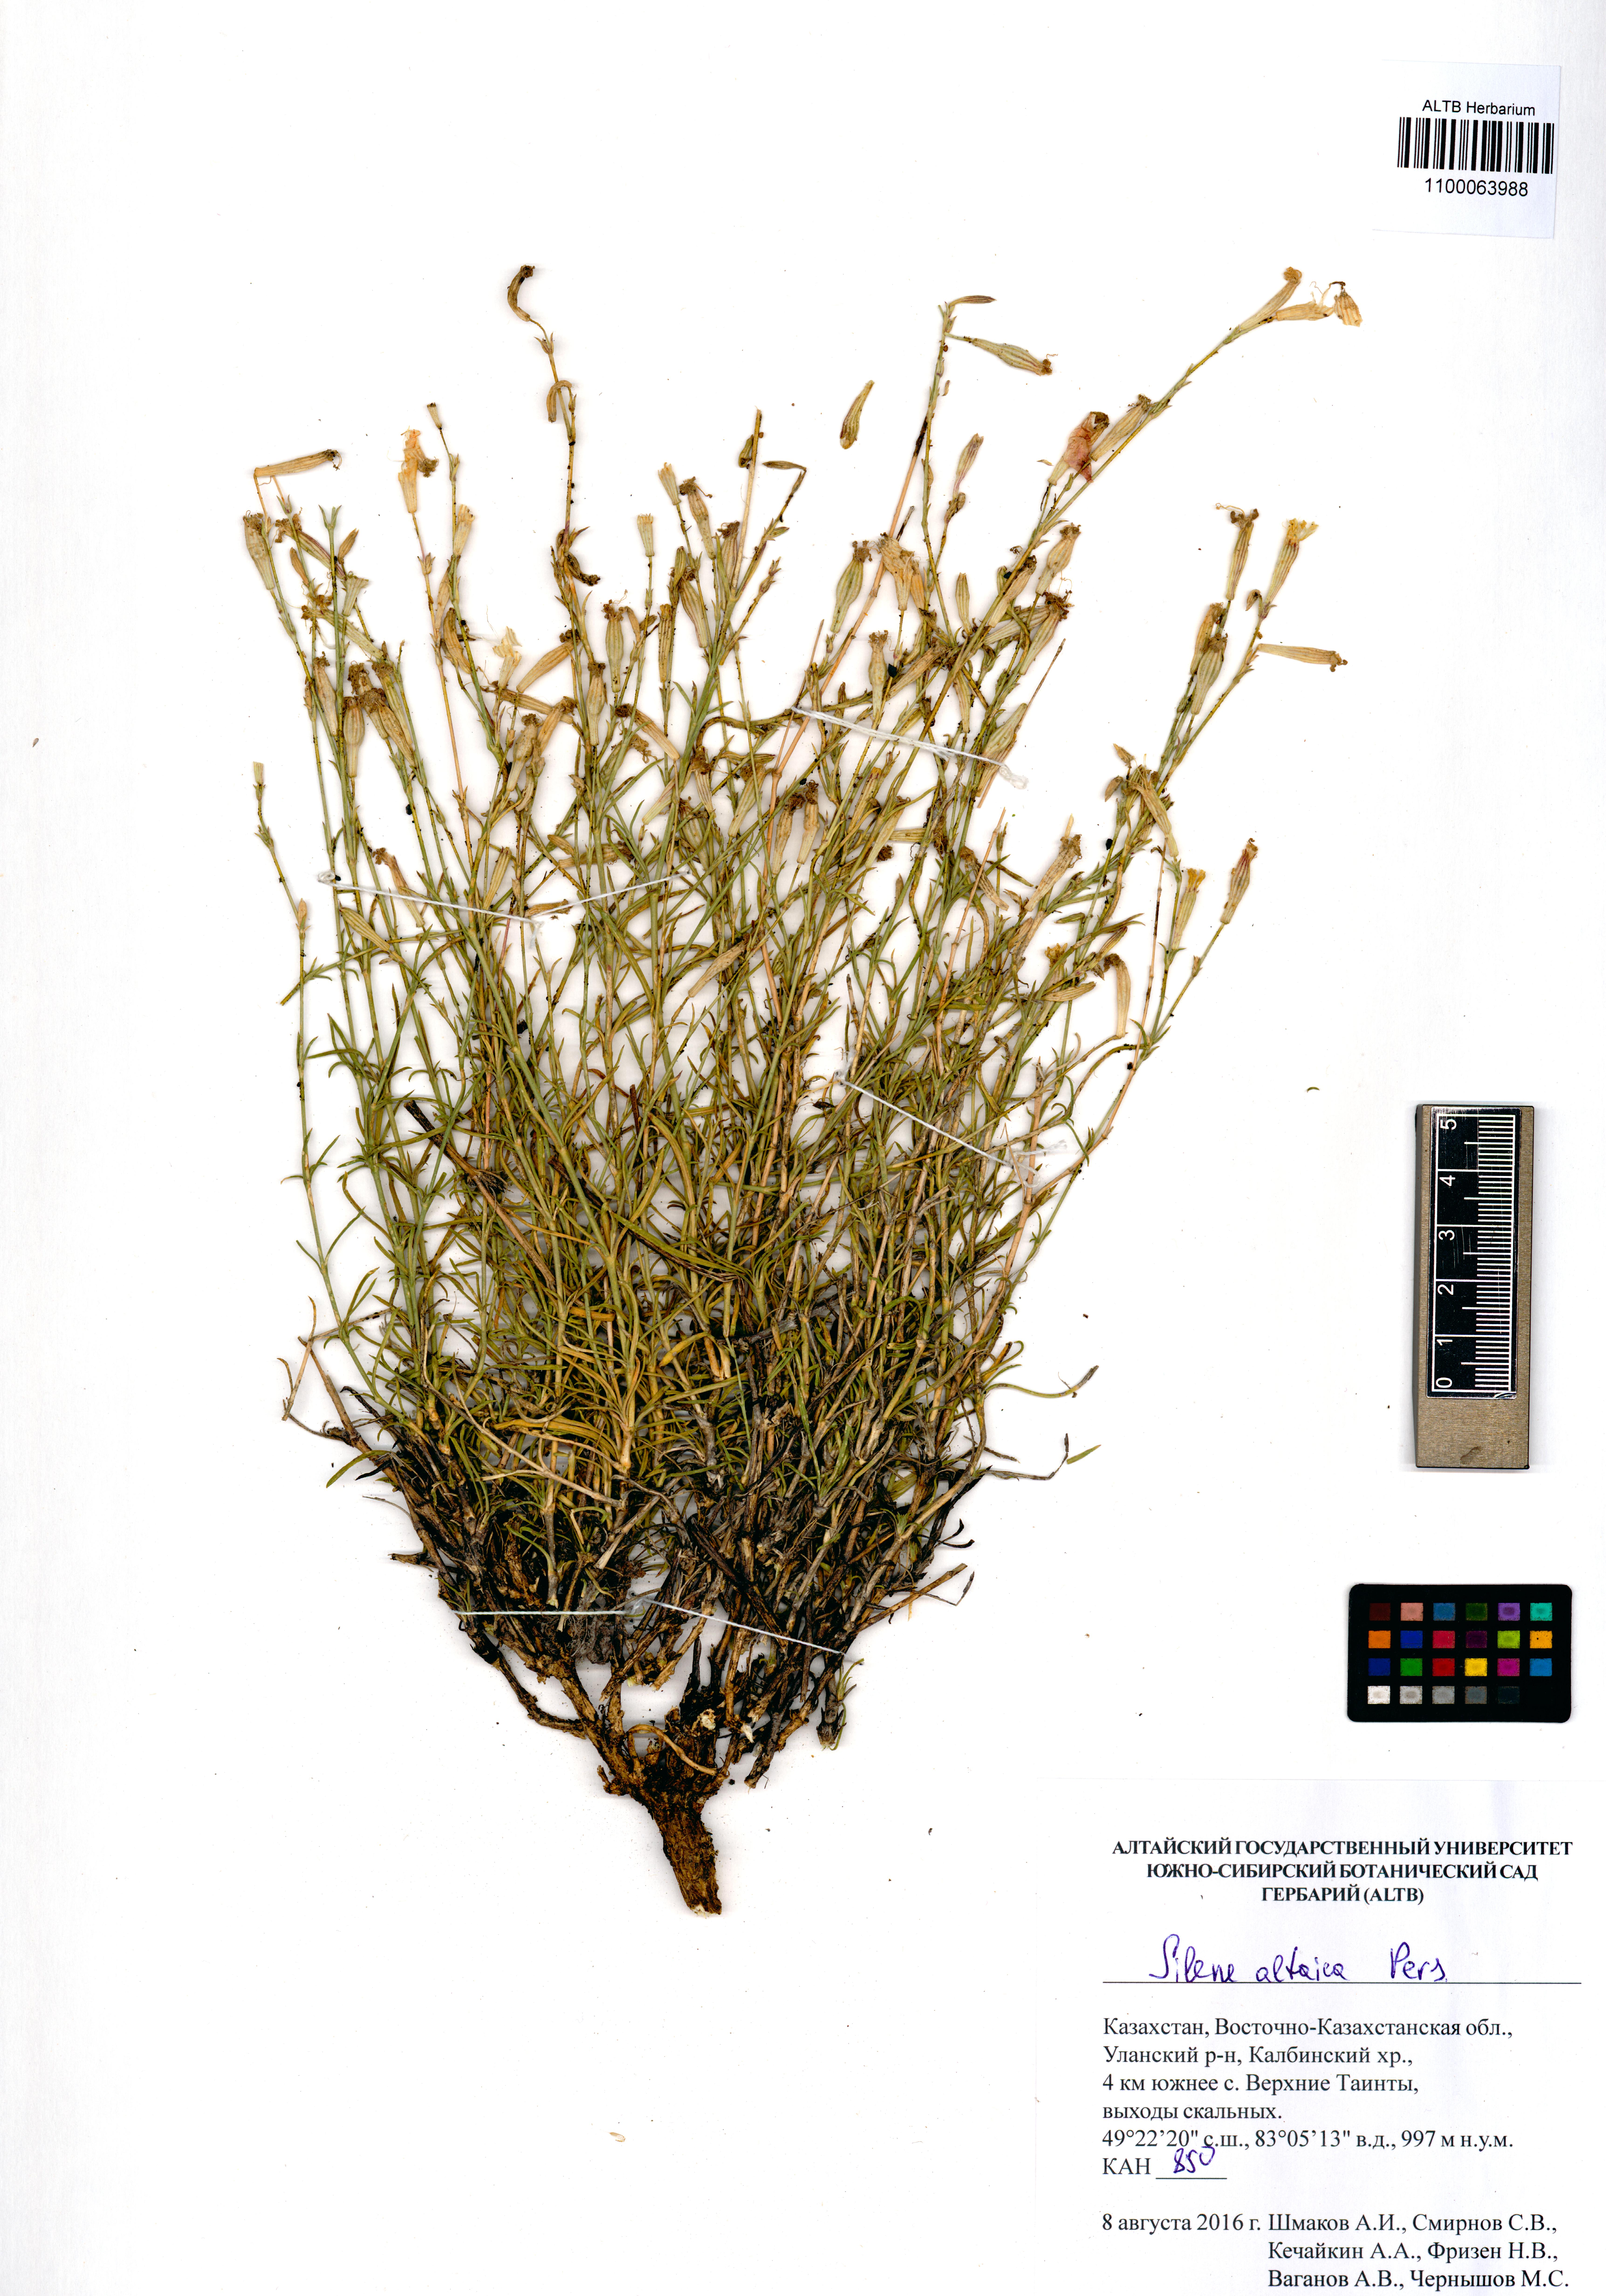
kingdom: Plantae
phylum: Tracheophyta
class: Magnoliopsida
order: Caryophyllales
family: Caryophyllaceae
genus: Silene
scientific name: Silene altaica
